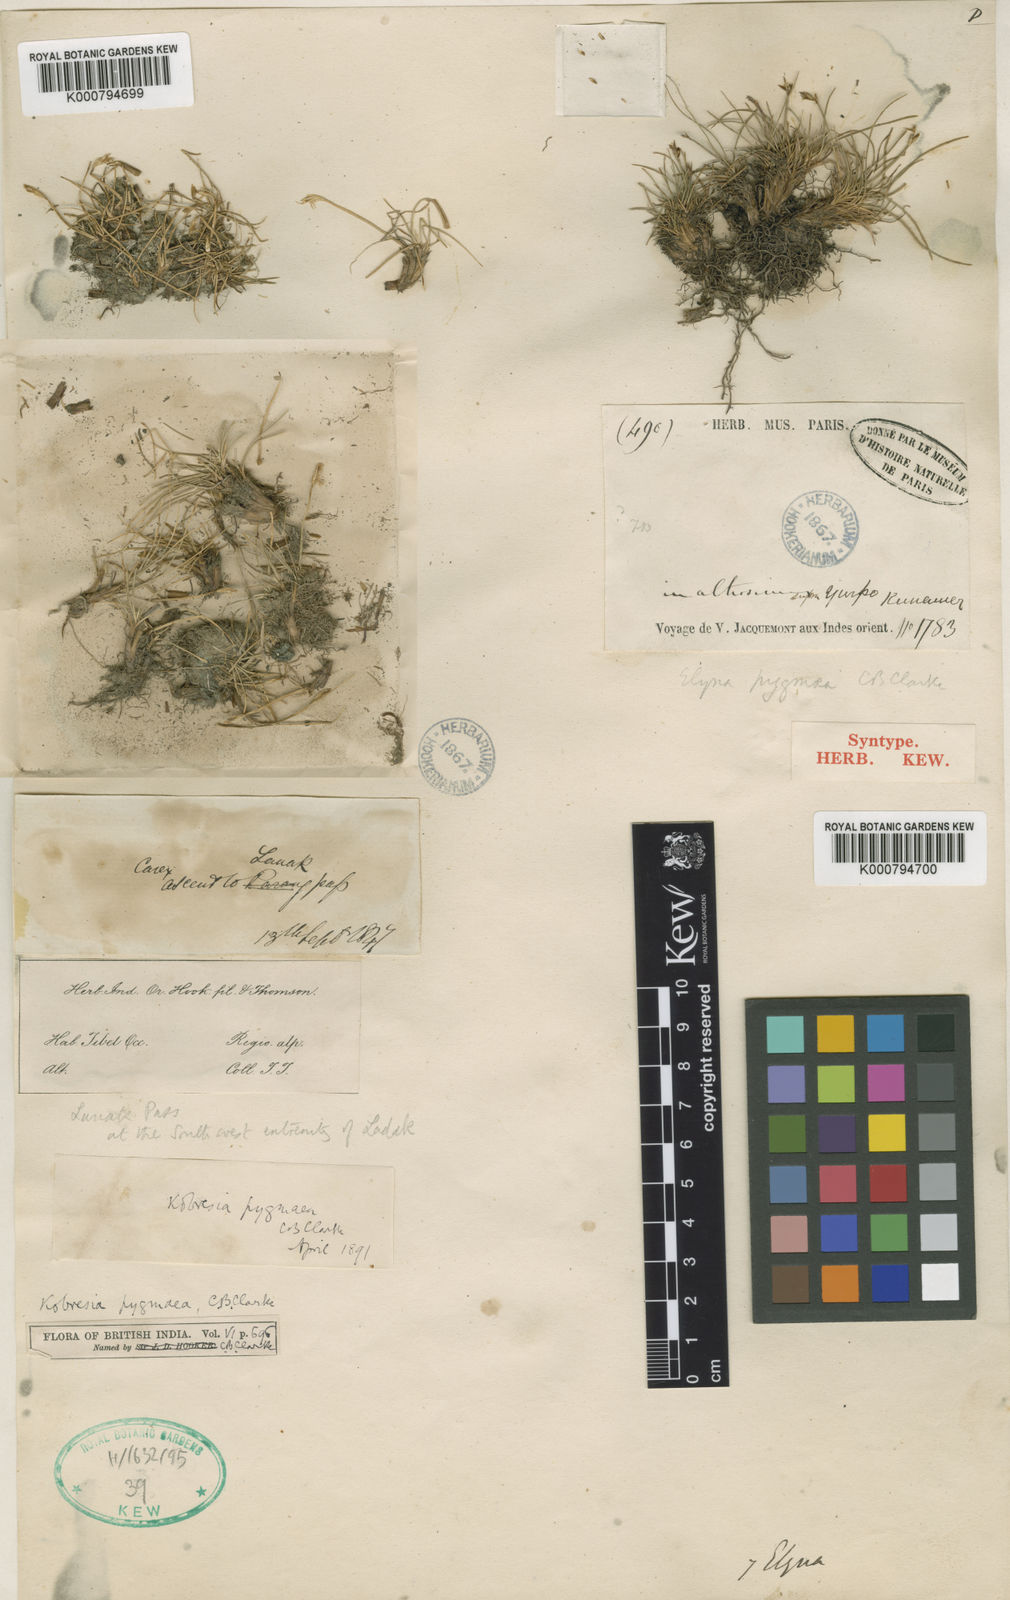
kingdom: Plantae
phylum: Tracheophyta
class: Liliopsida
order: Poales
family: Cyperaceae
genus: Carex
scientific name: Carex parvula
